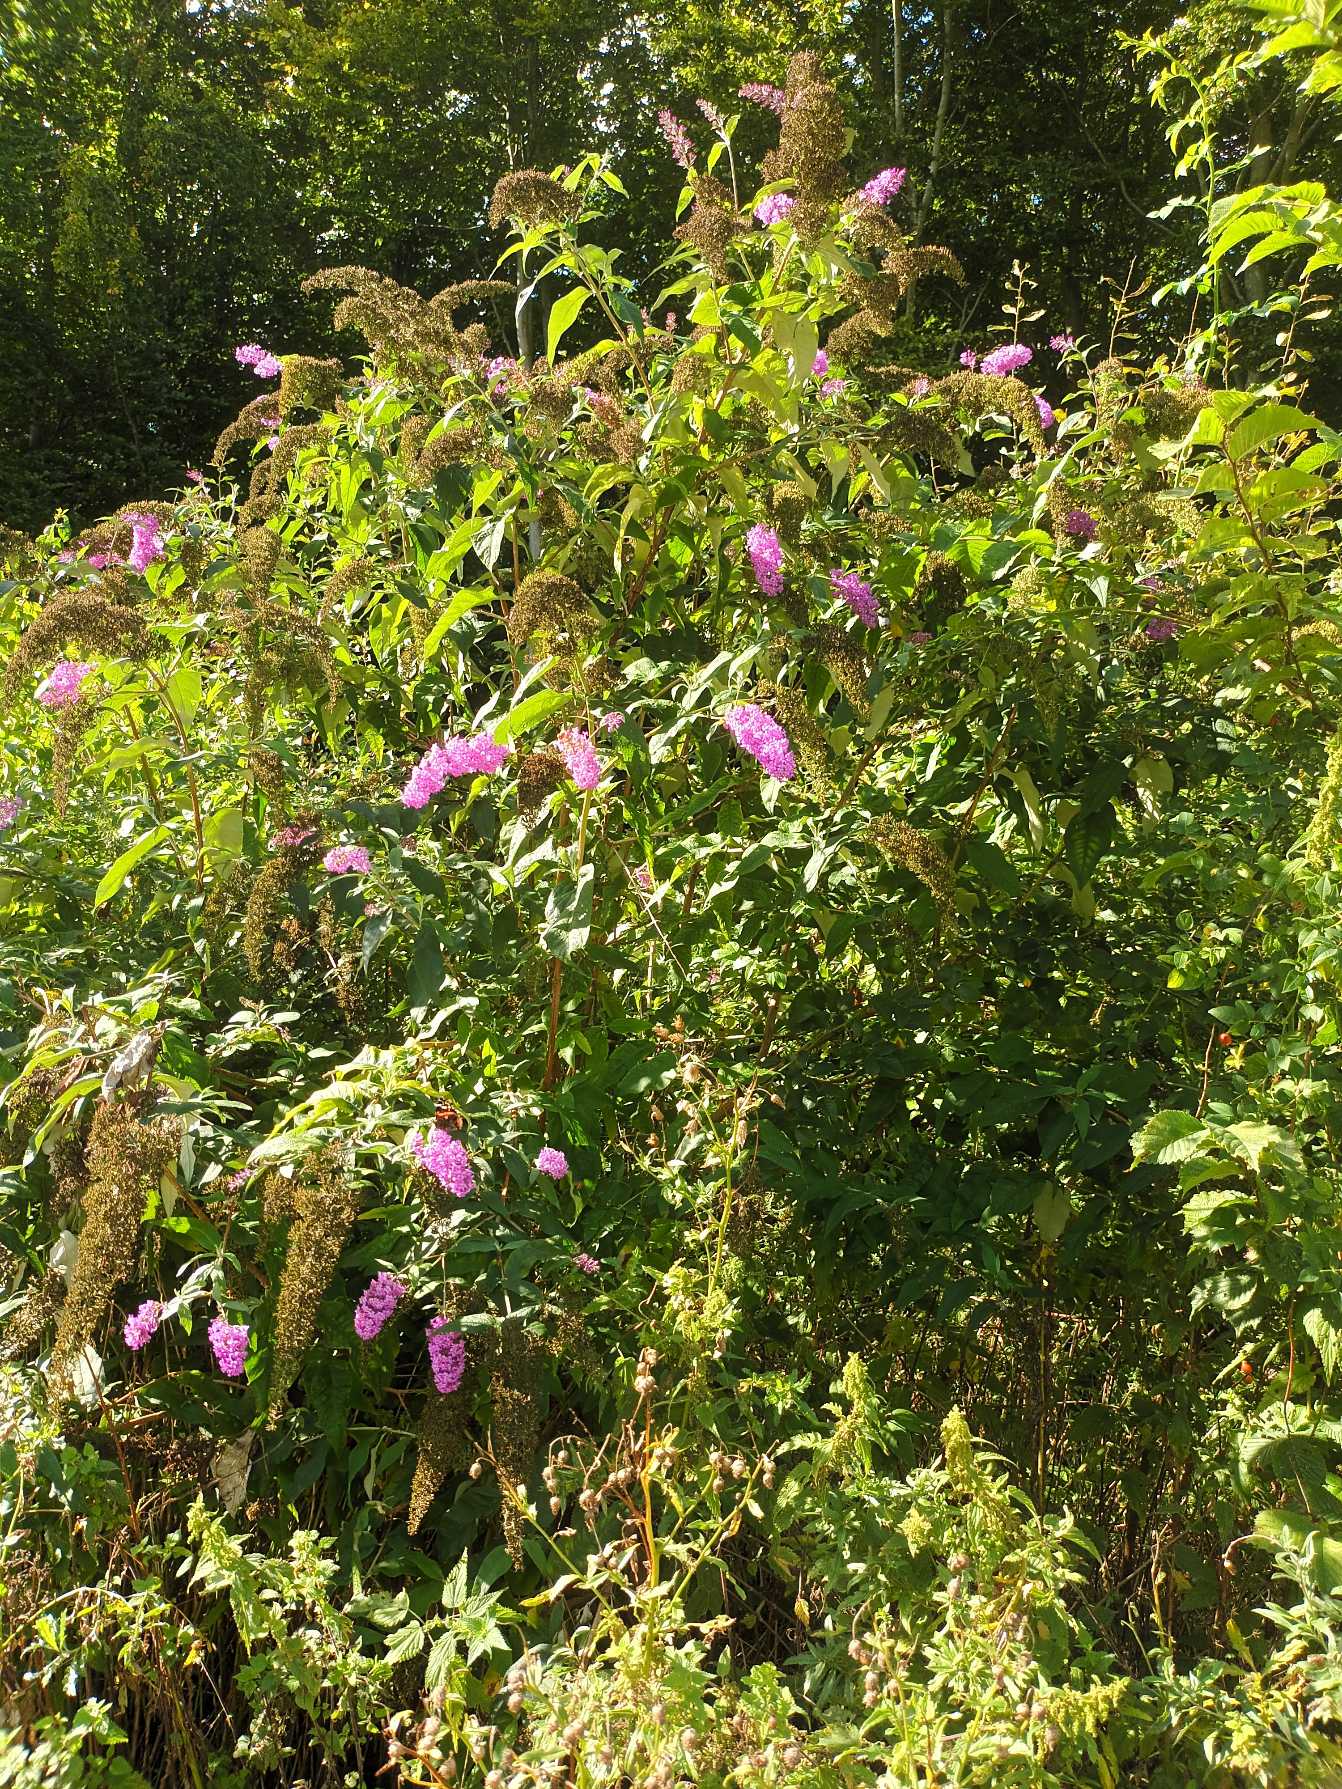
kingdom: Plantae
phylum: Tracheophyta
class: Magnoliopsida
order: Lamiales
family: Scrophulariaceae
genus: Buddleja
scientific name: Buddleja davidii
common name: Sommerfuglebusk
